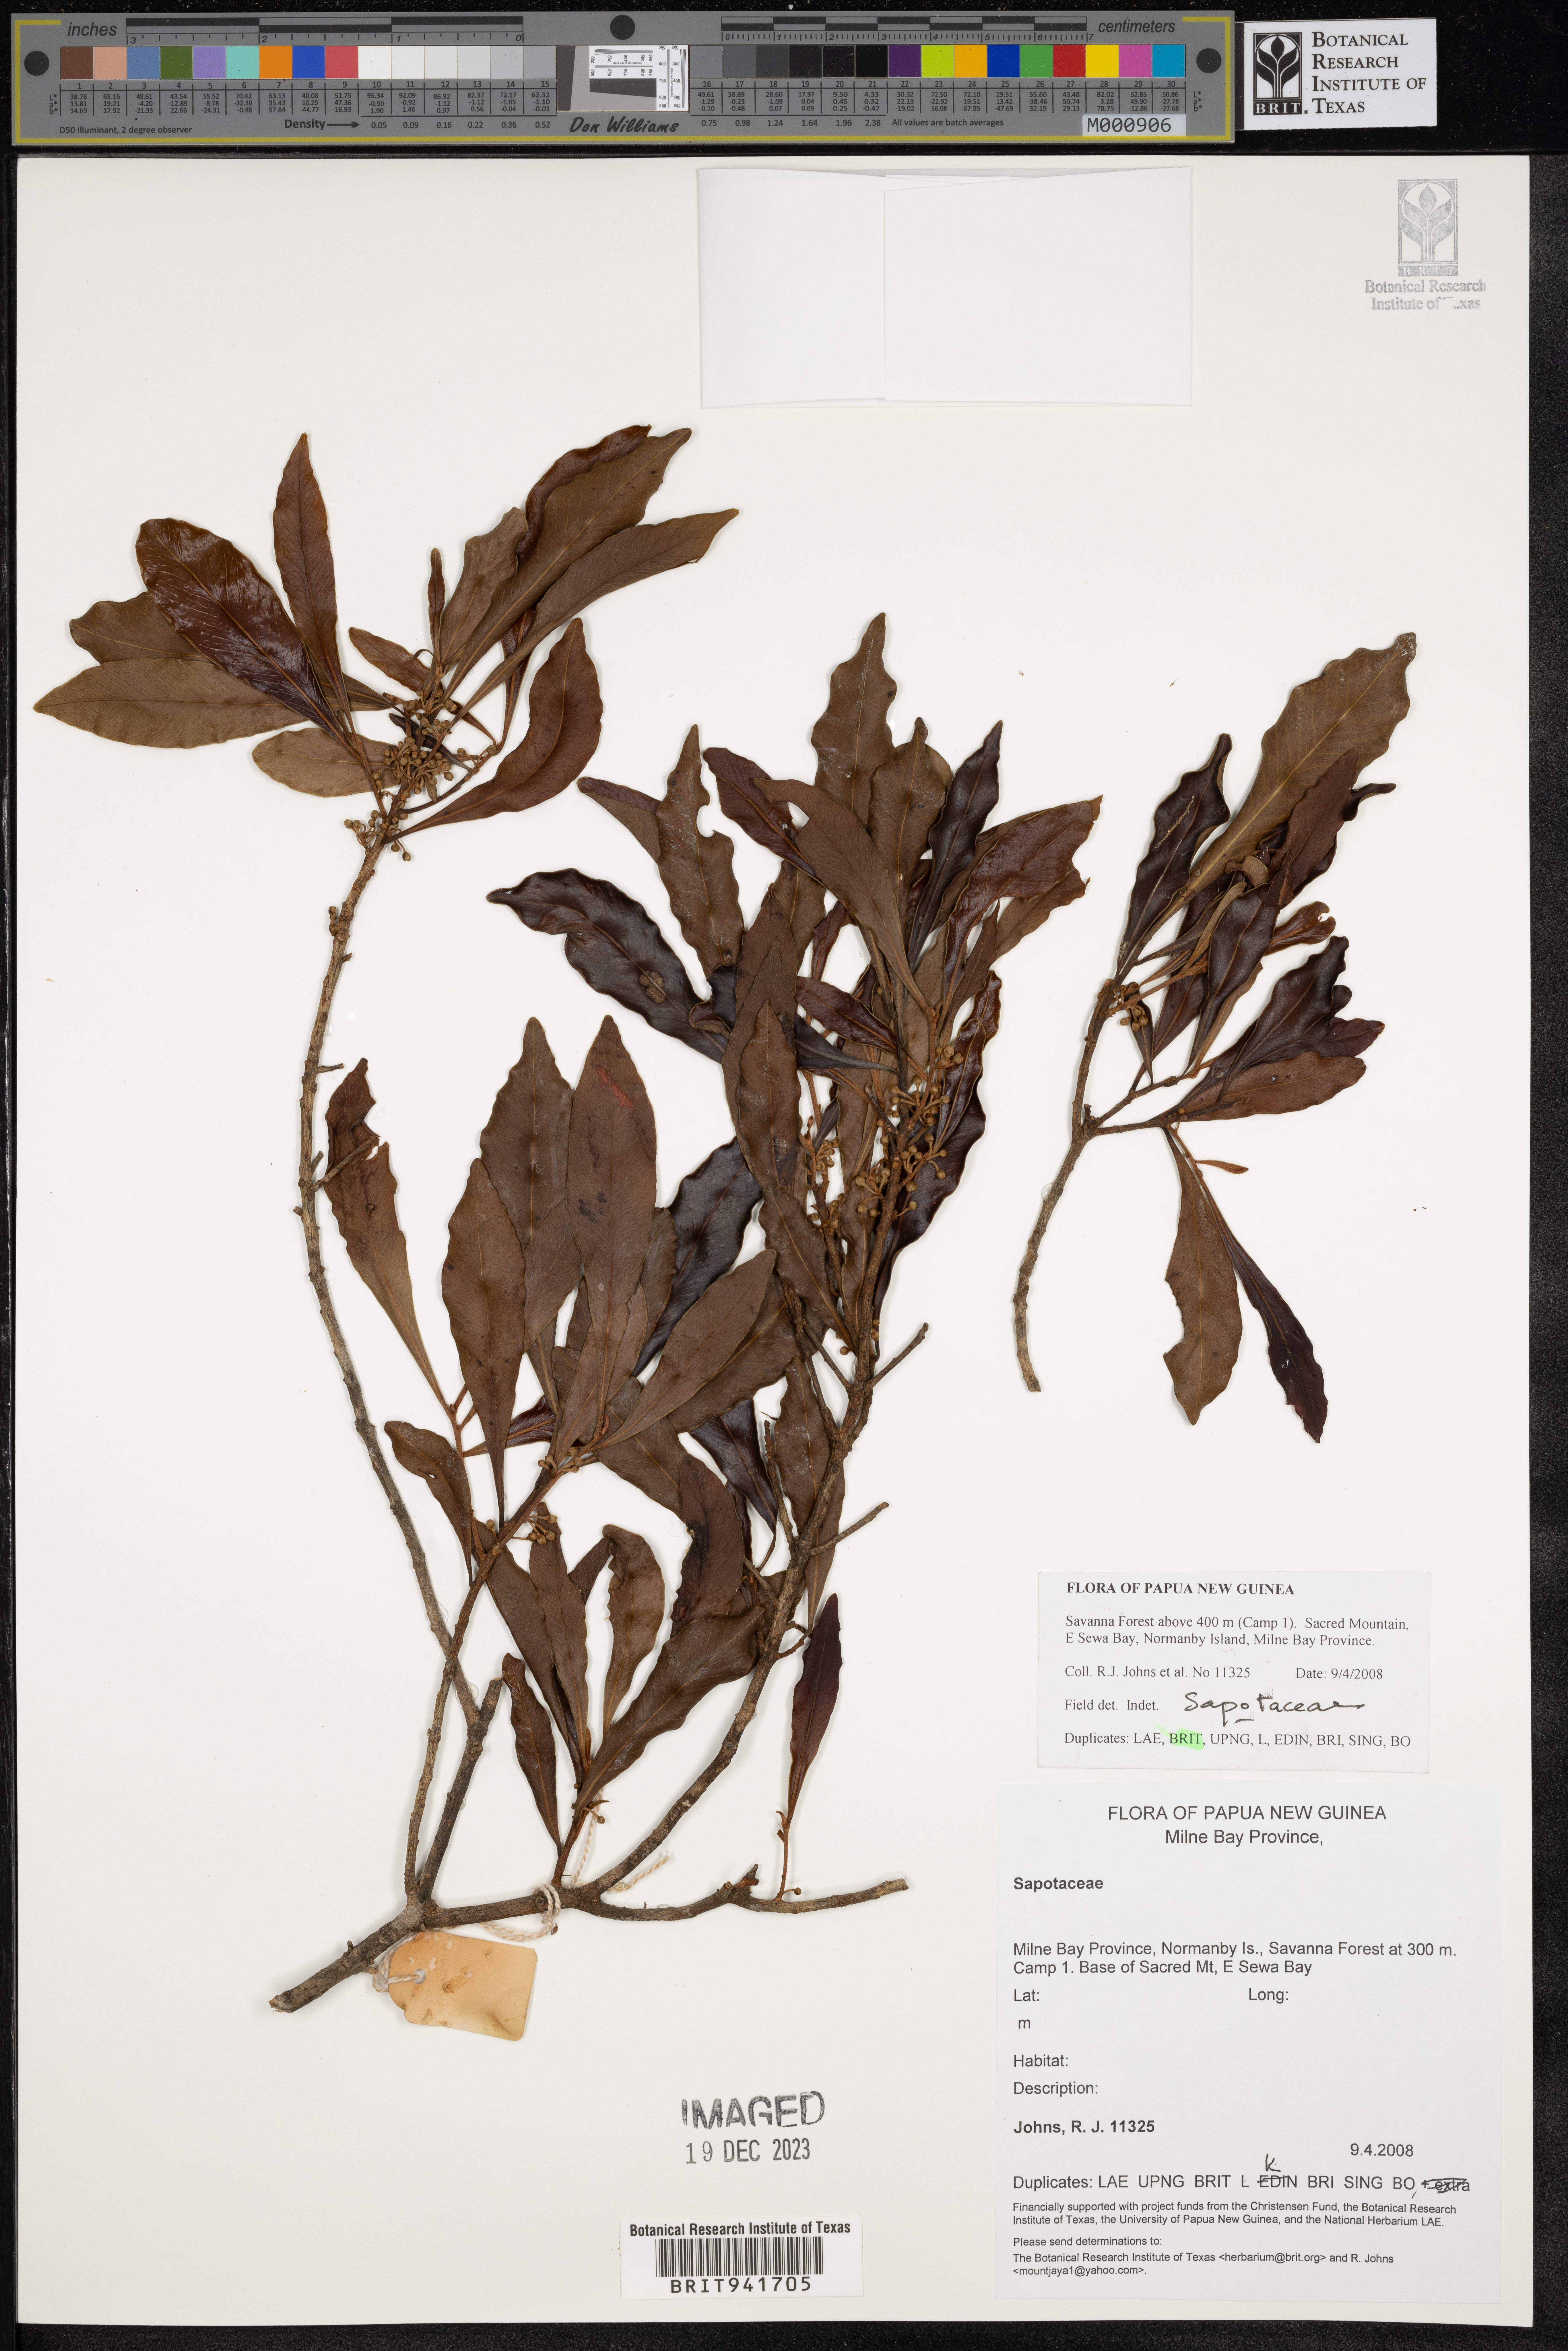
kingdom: Plantae
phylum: Tracheophyta
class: Magnoliopsida
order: Ericales
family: Sapotaceae
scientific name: Sapotaceae
